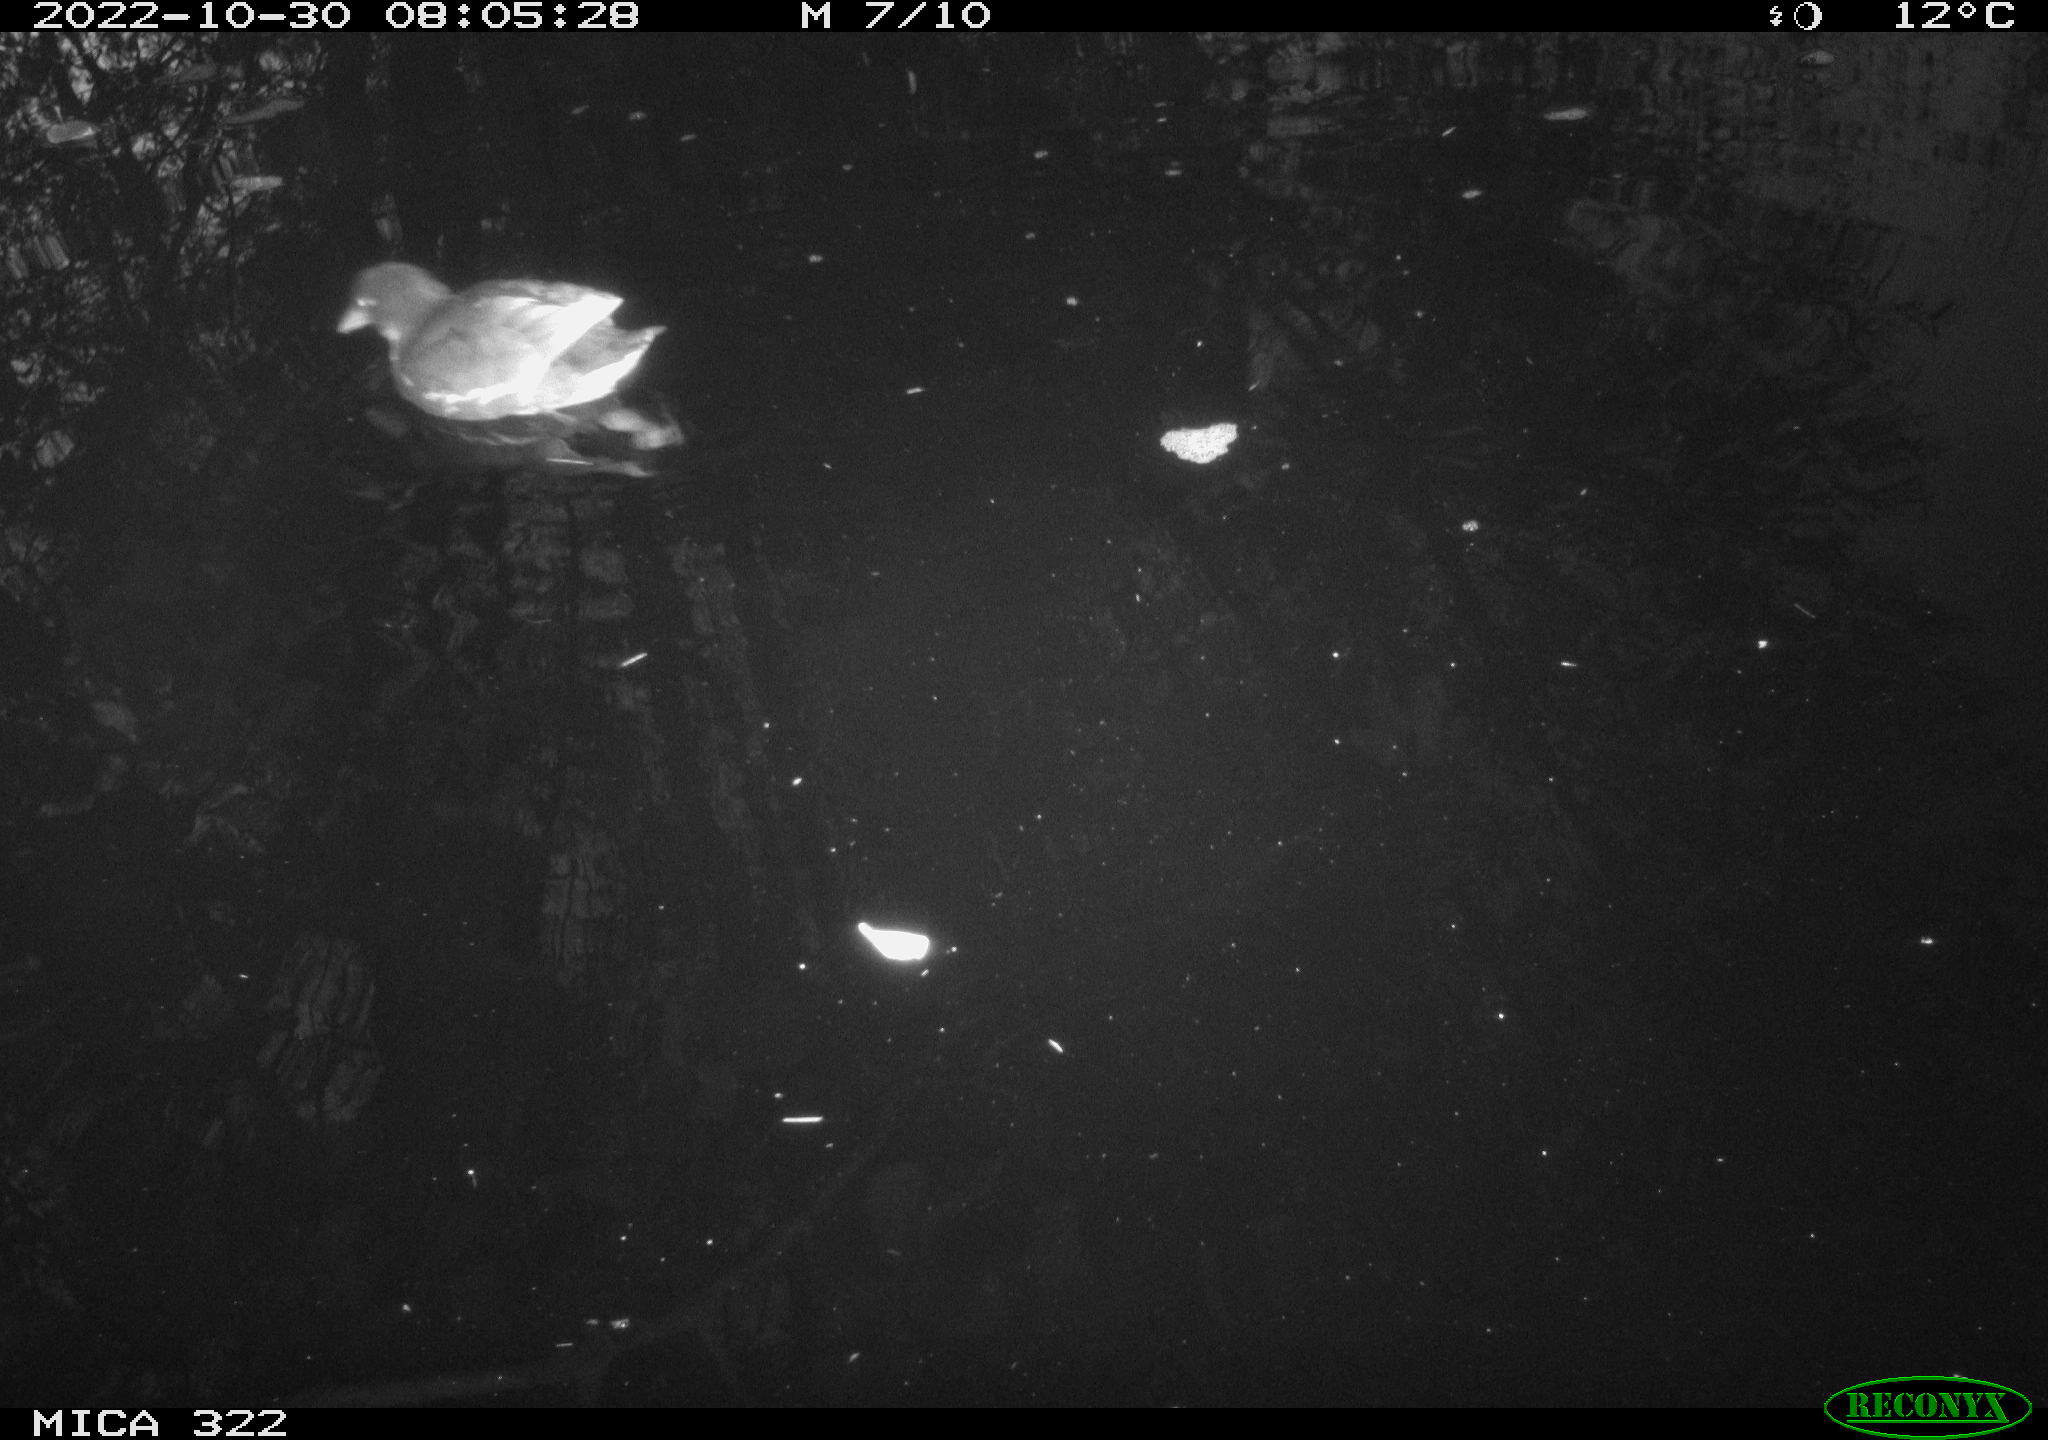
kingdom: Animalia
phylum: Chordata
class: Aves
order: Gruiformes
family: Rallidae
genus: Gallinula
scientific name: Gallinula chloropus
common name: Common moorhen
